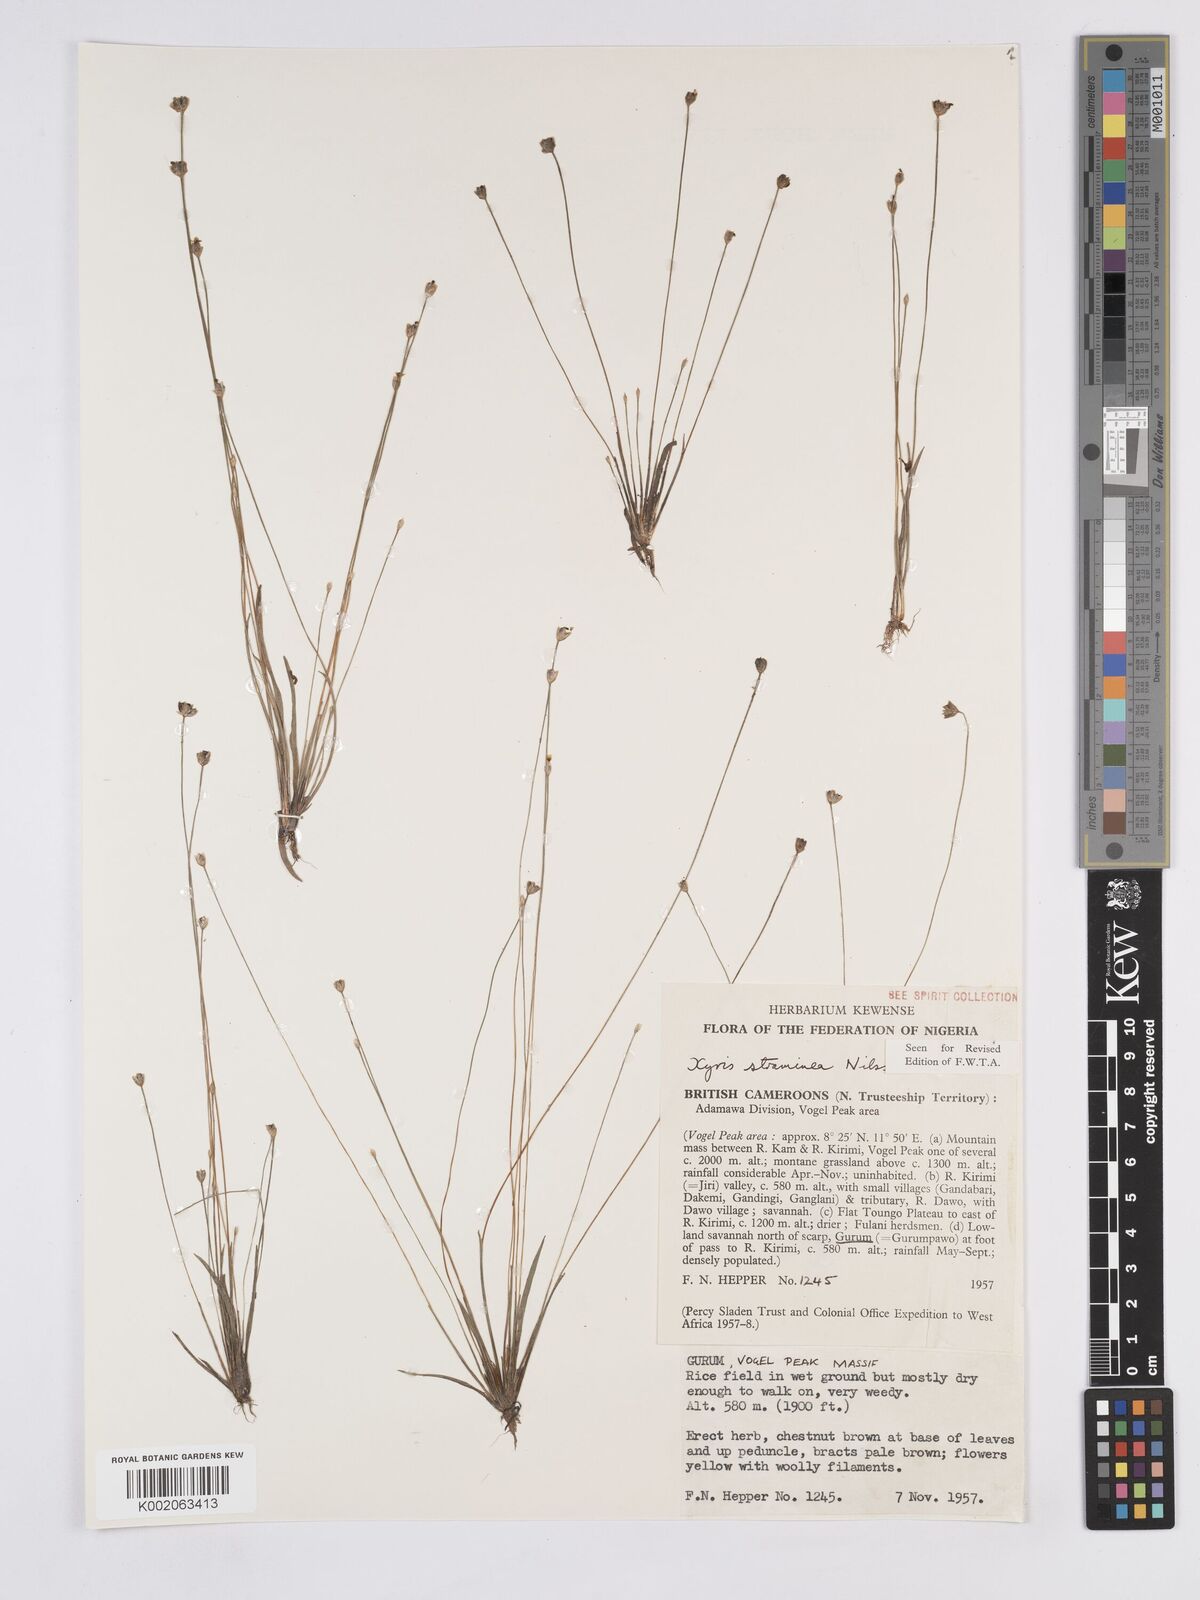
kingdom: Plantae
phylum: Tracheophyta
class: Liliopsida
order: Poales
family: Xyridaceae
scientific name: Xyridaceae
